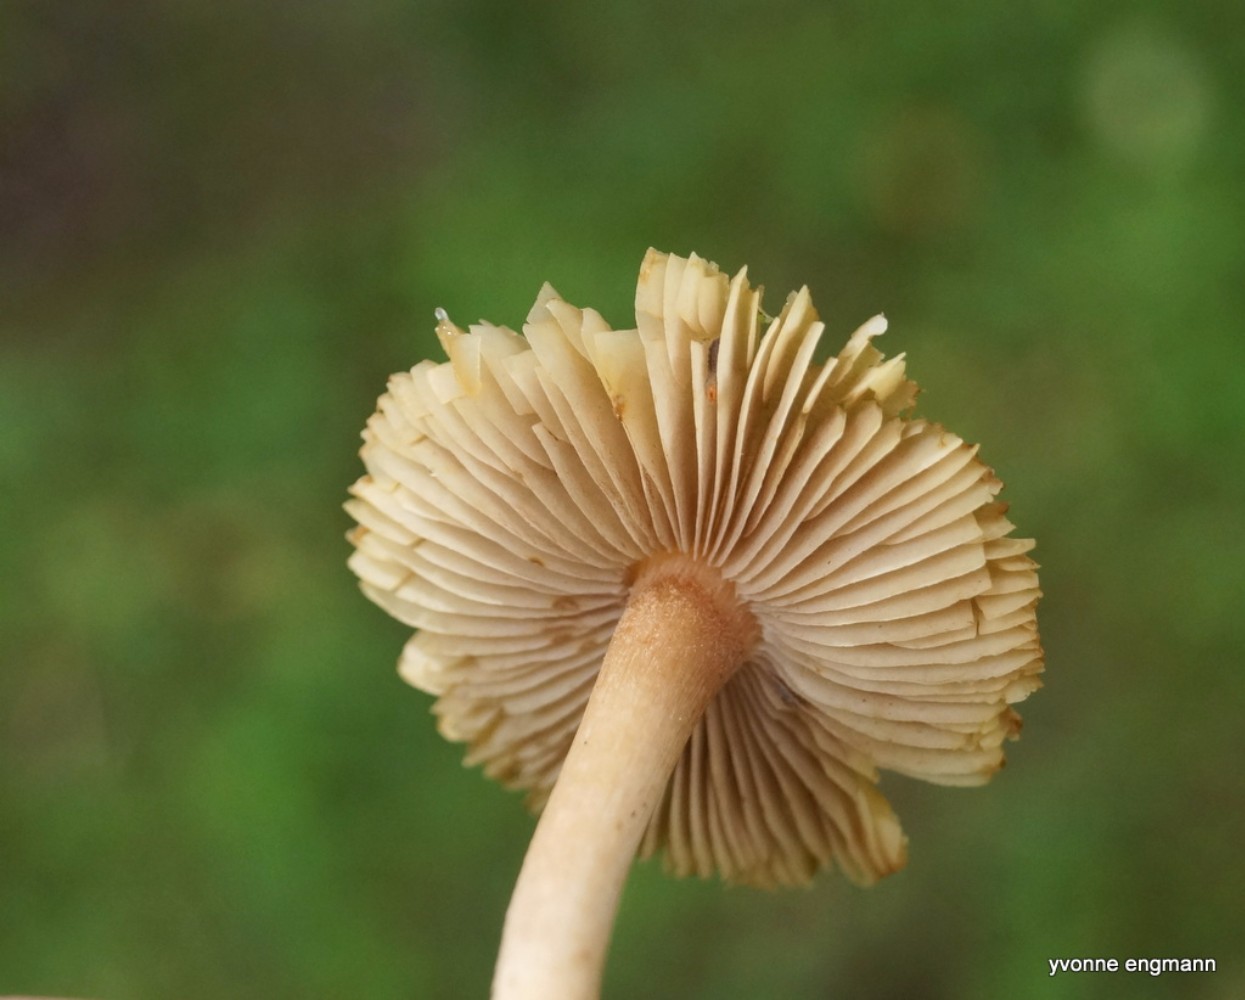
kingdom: Fungi
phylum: Basidiomycota
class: Agaricomycetes
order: Agaricales
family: Inocybaceae
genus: Inocybe
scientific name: Inocybe
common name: trævlhat
